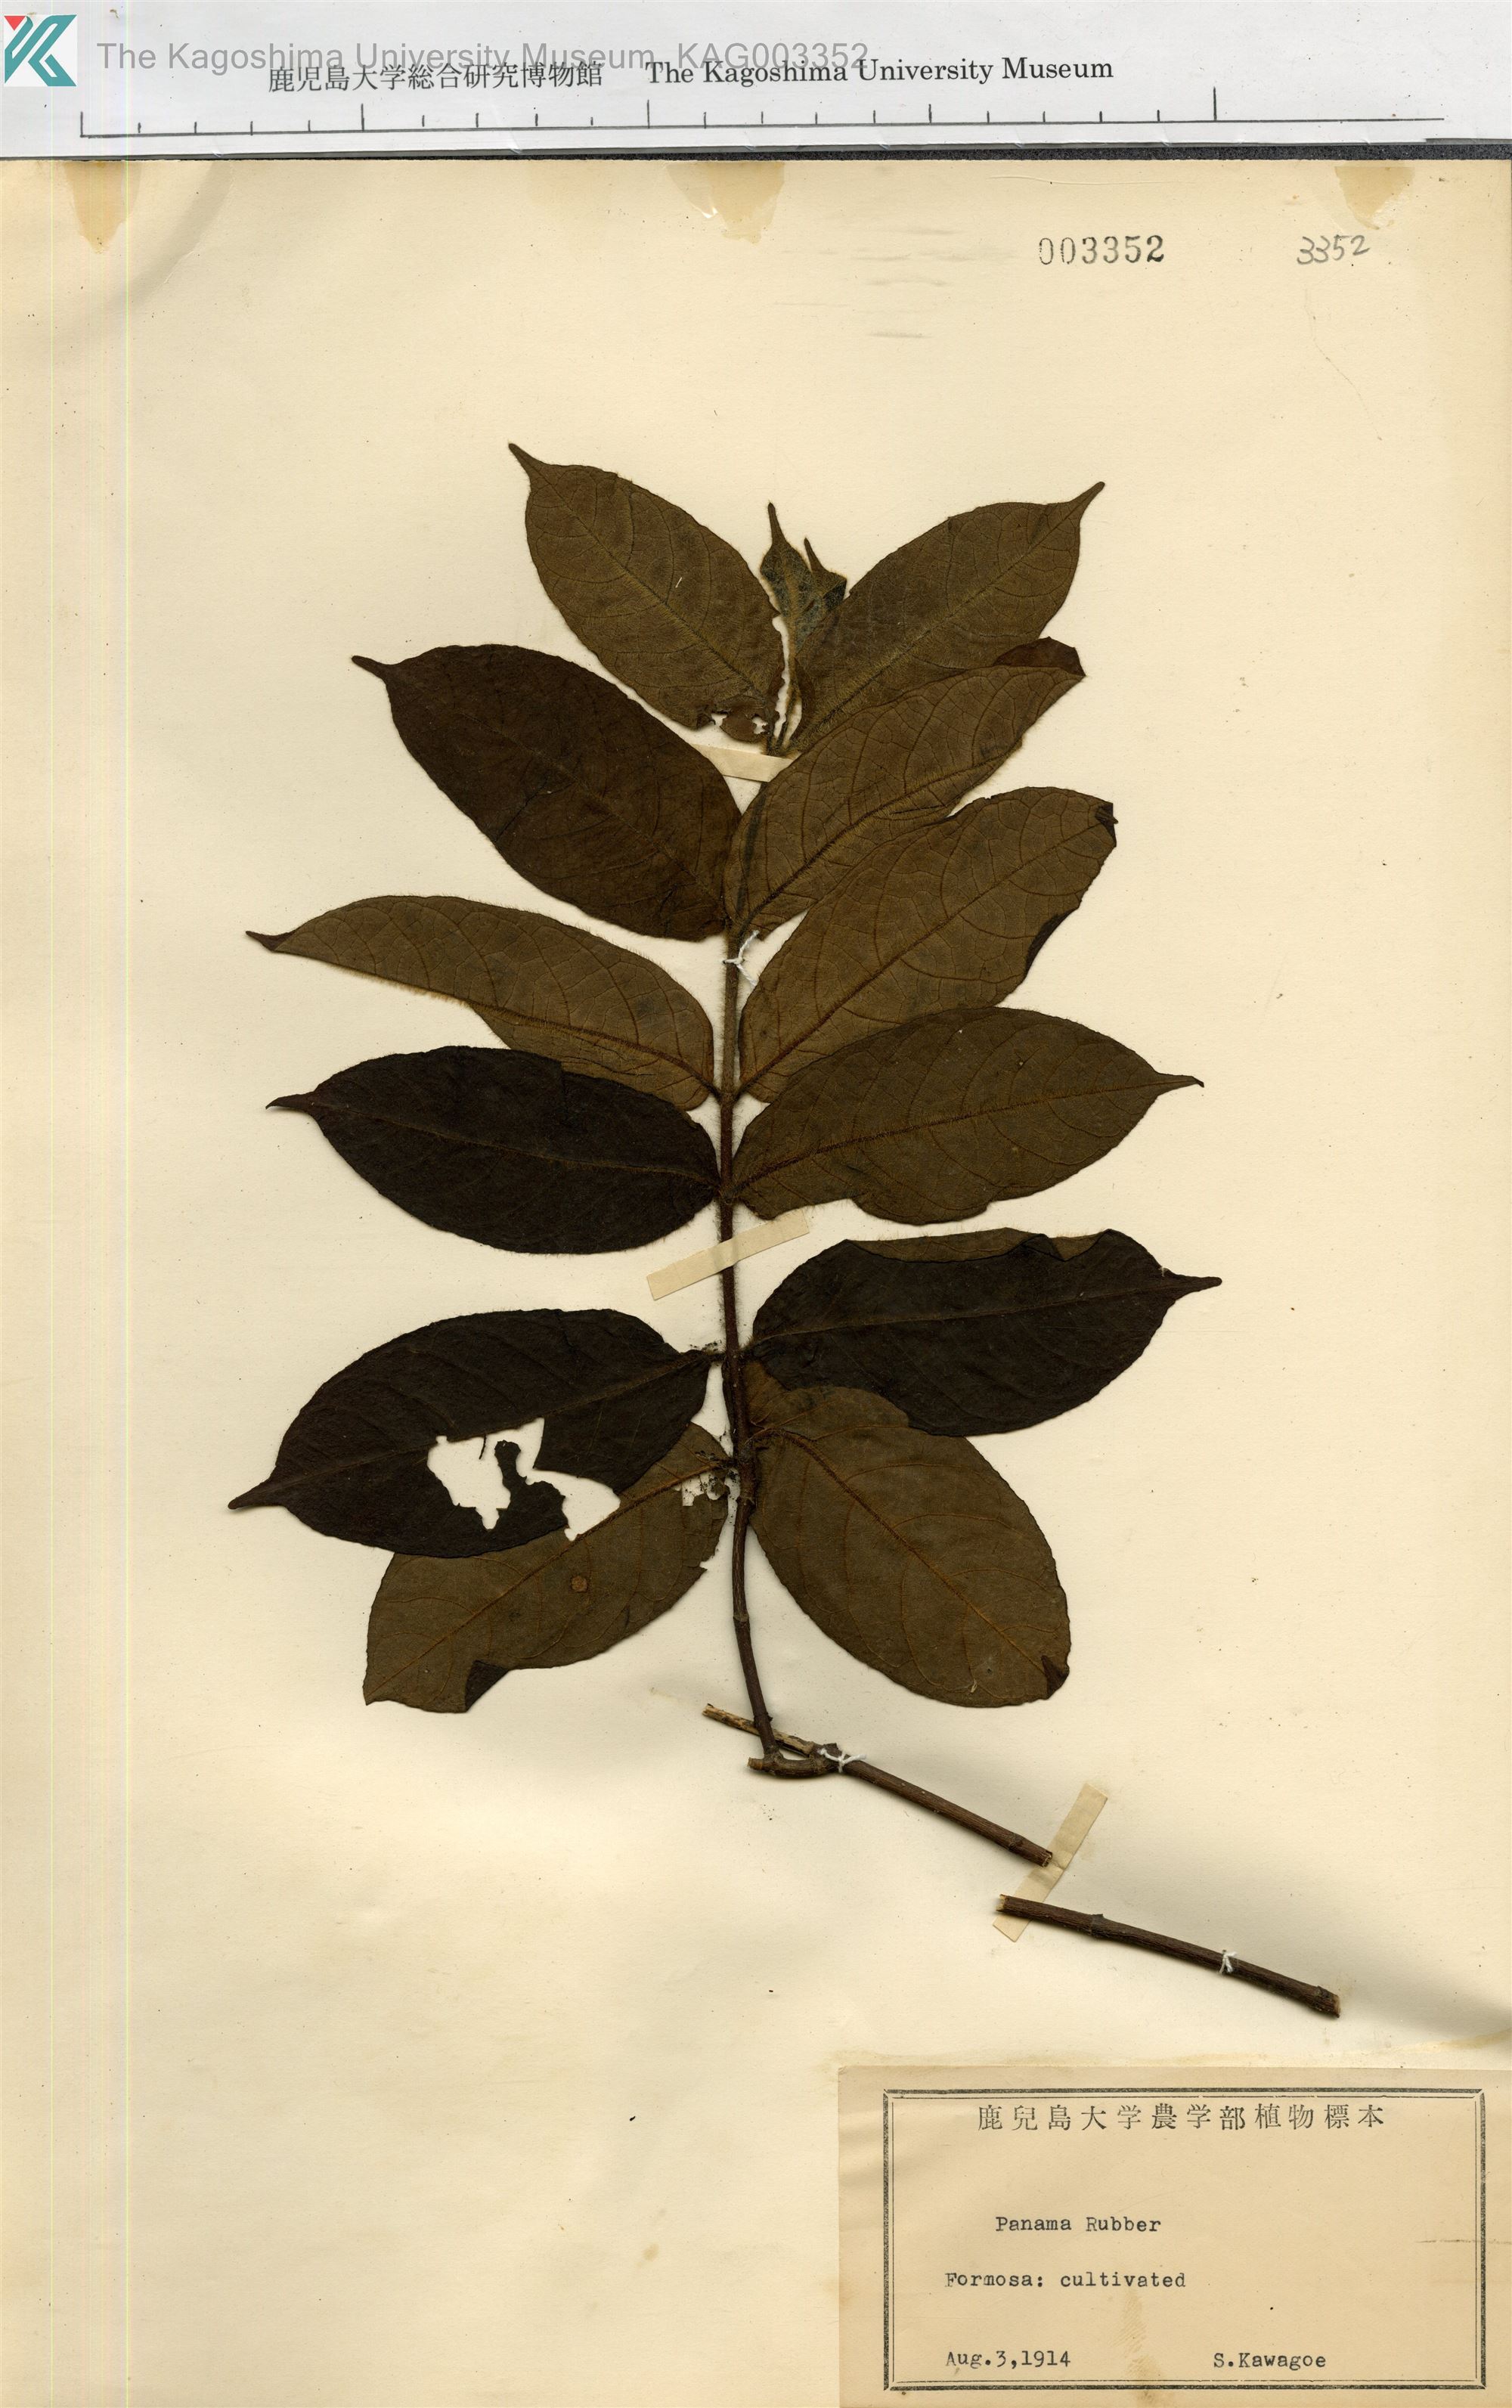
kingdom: Plantae
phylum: Tracheophyta
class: Magnoliopsida
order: Rosales
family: Moraceae
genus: Castilla
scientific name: Castilla elastica
